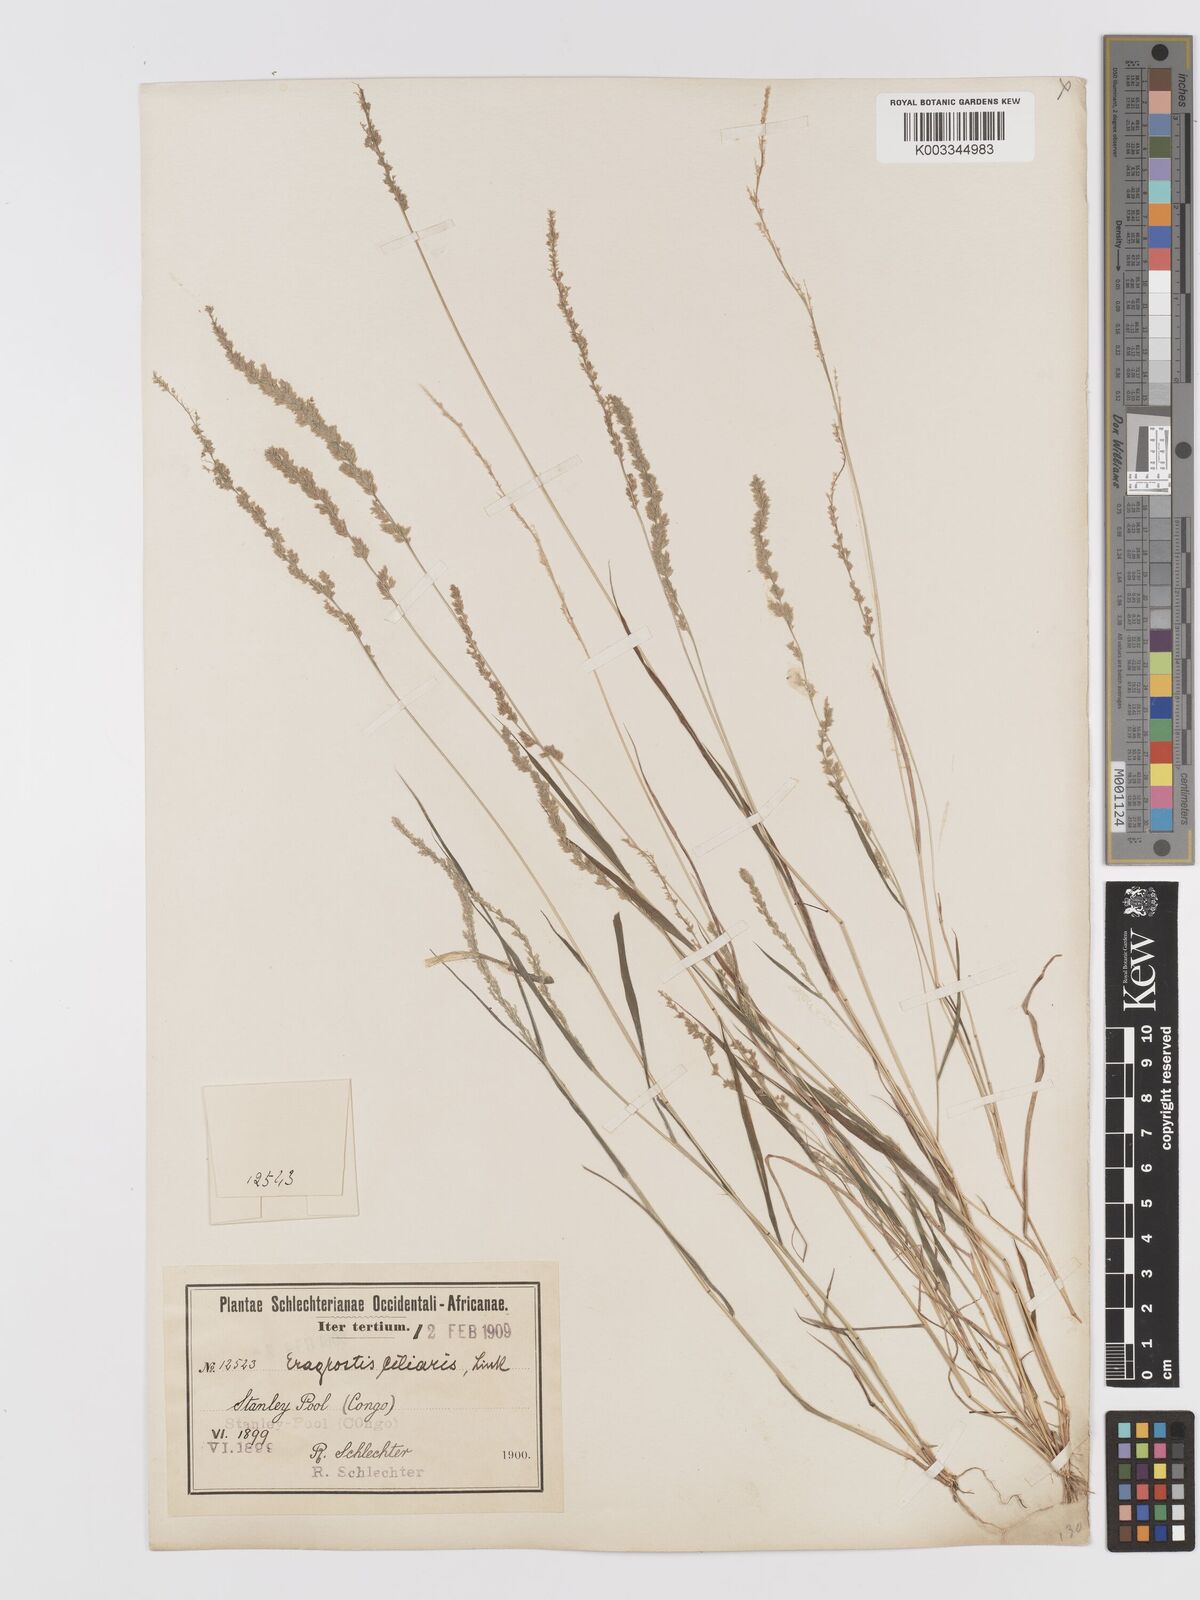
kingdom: Plantae
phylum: Tracheophyta
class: Liliopsida
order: Poales
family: Poaceae
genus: Eragrostis
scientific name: Eragrostis ciliaris
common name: Gophertail lovegrass
